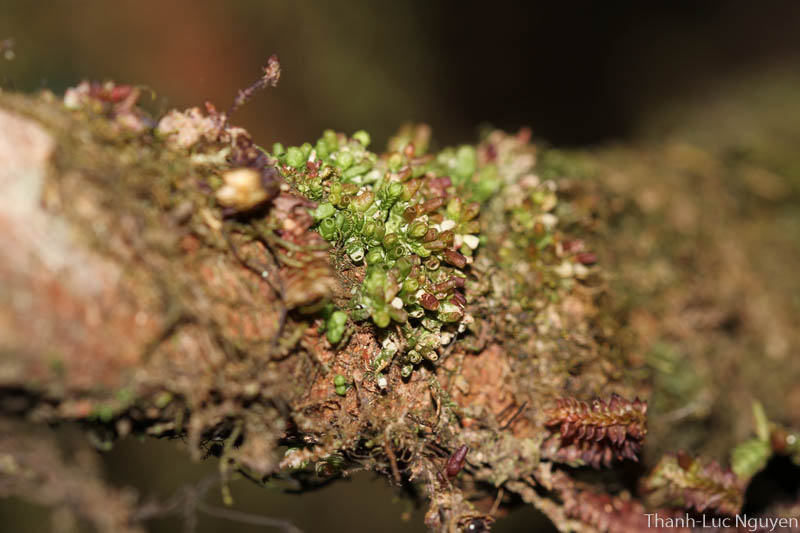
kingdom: Plantae
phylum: Marchantiophyta
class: Jungermanniopsida
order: Pleuroziales
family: Pleuroziaceae
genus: Pleurozia
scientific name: Pleurozia
